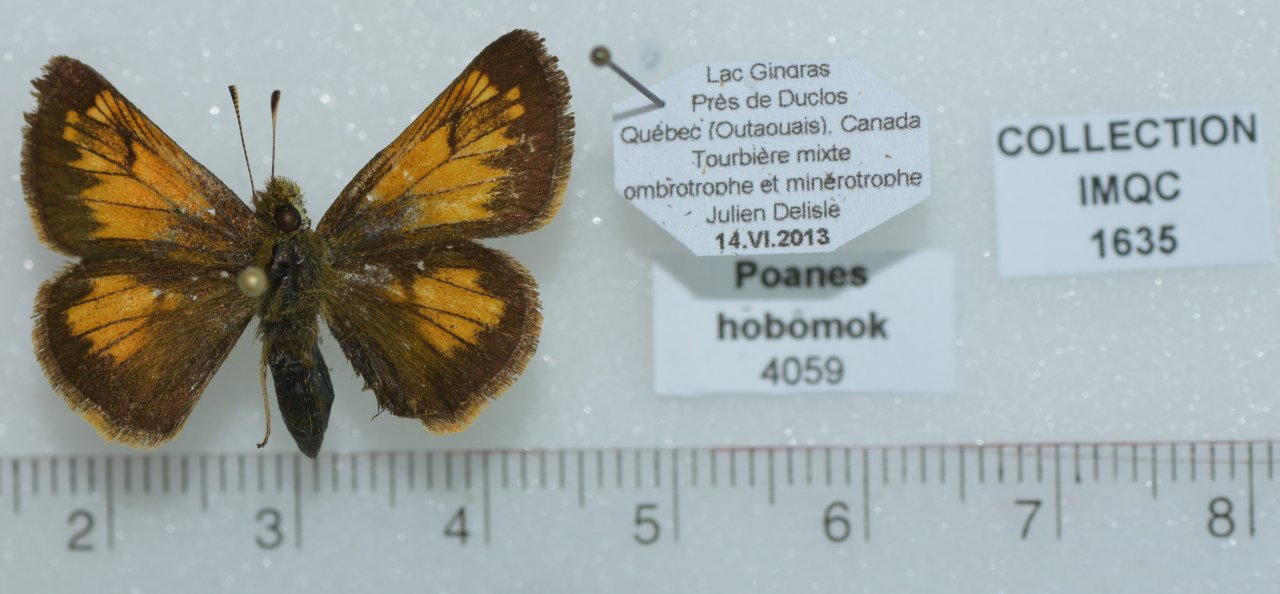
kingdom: Animalia
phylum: Arthropoda
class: Insecta
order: Lepidoptera
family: Hesperiidae
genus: Lon
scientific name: Lon hobomok
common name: Hobomok Skipper
